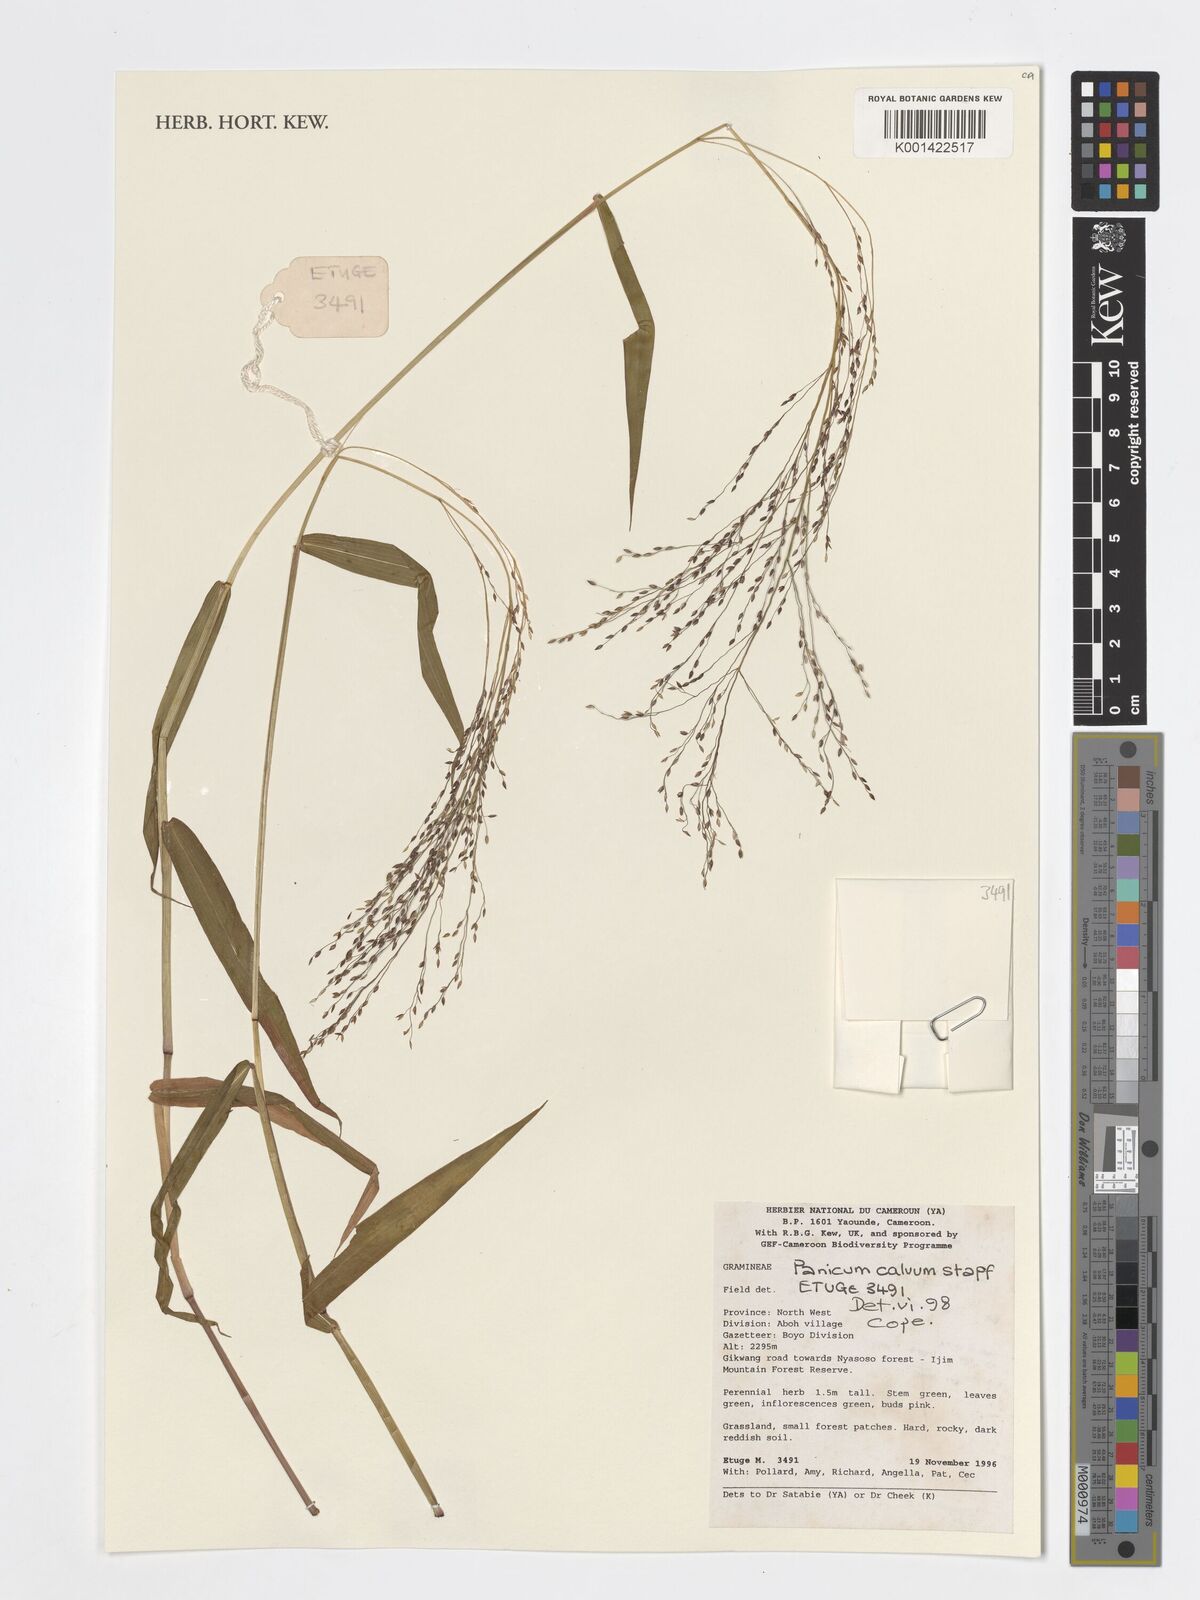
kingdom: Plantae
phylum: Tracheophyta
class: Liliopsida
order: Poales
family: Poaceae
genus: Panicum
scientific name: Panicum calvum
